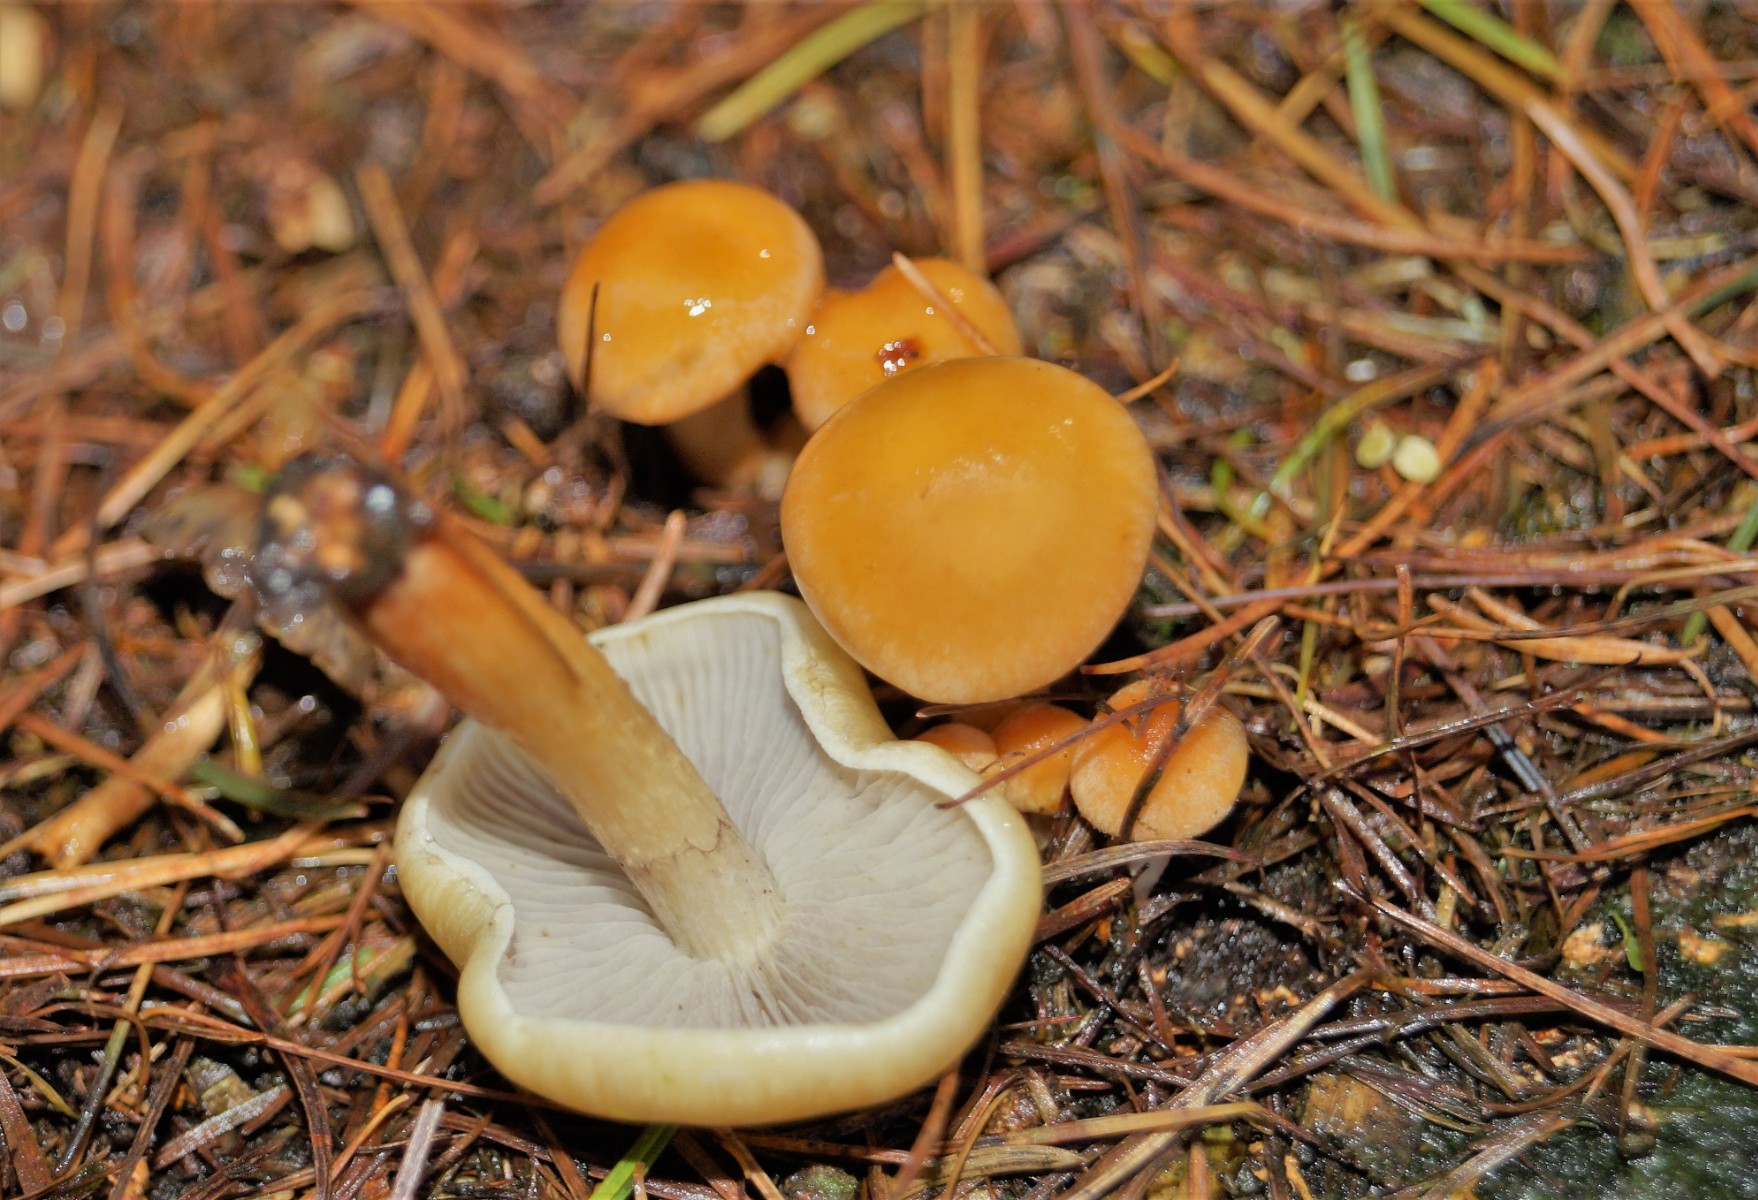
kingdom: Fungi
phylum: Basidiomycota
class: Agaricomycetes
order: Agaricales
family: Strophariaceae
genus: Hypholoma
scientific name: Hypholoma capnoides
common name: gran-svovlhat
